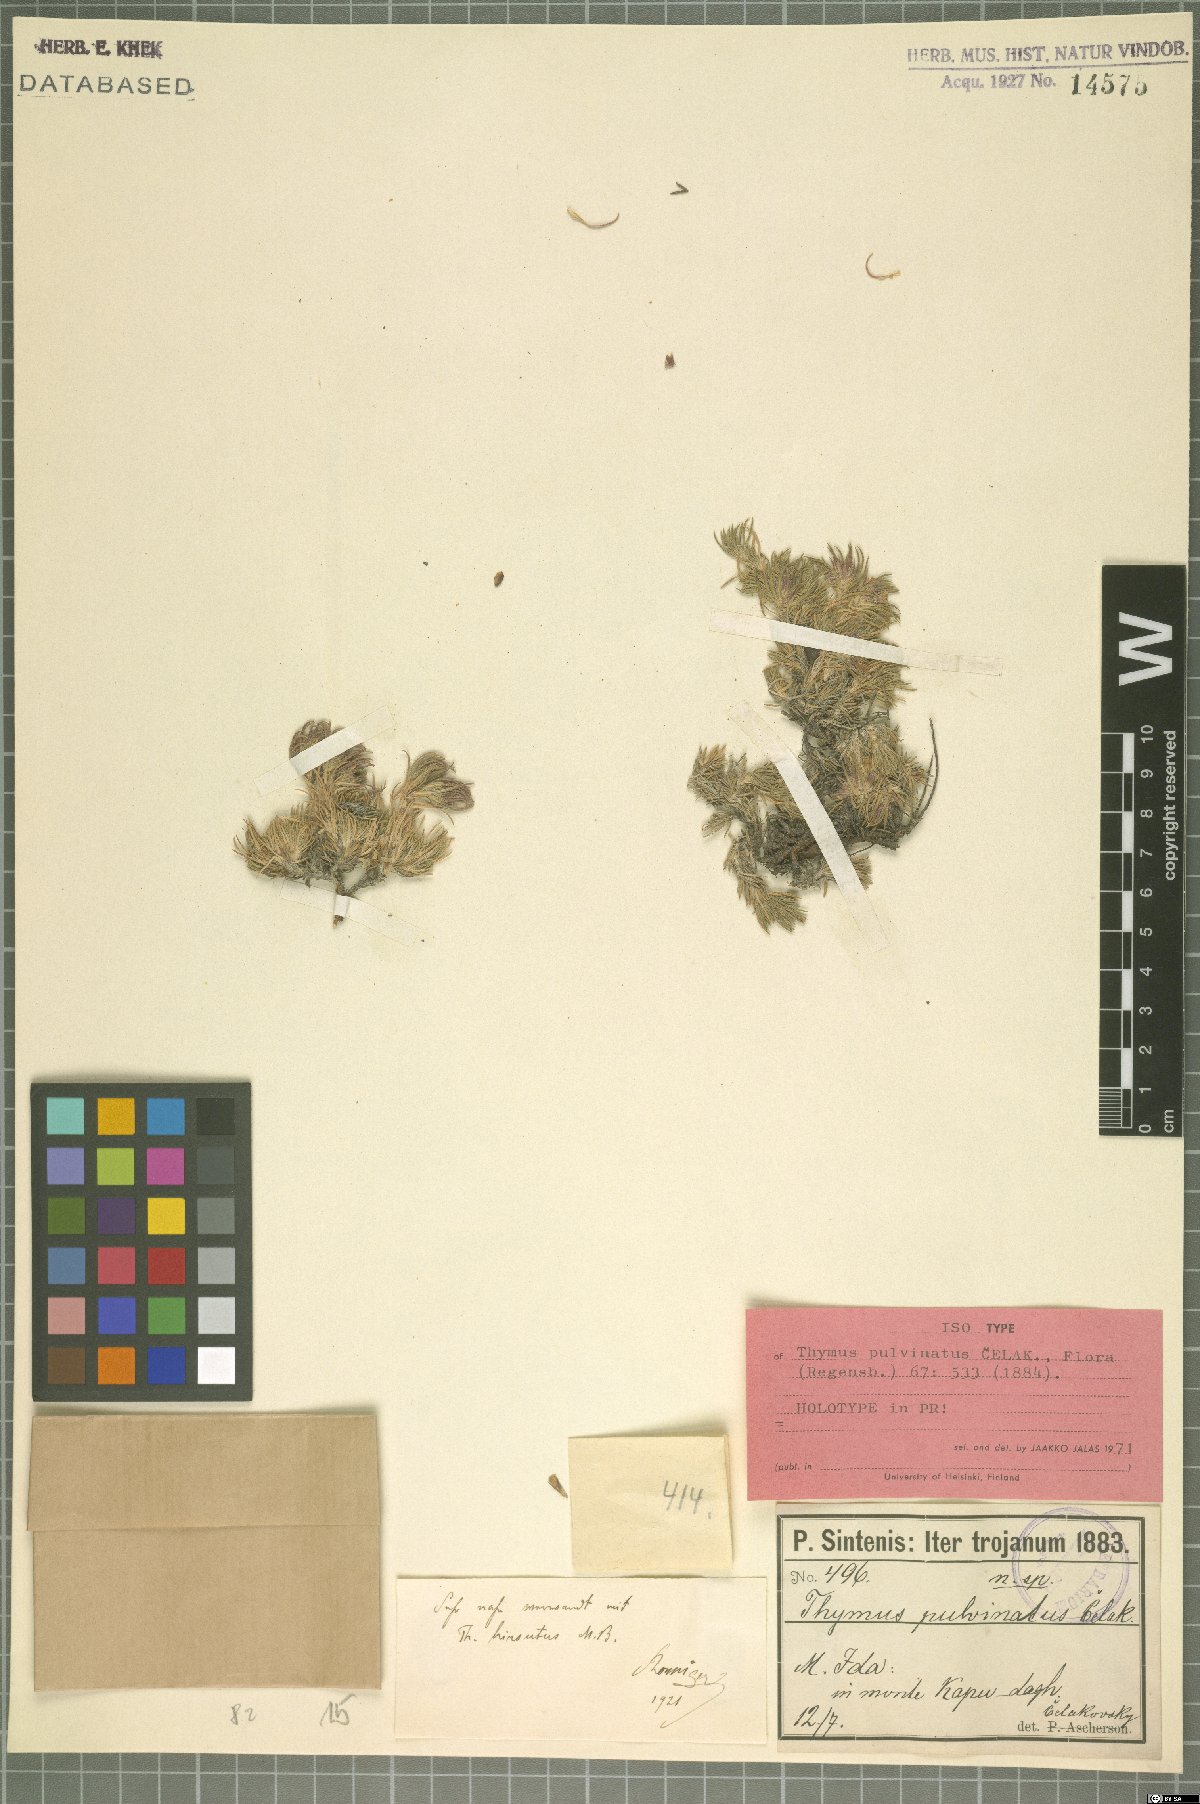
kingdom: Plantae
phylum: Tracheophyta
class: Magnoliopsida
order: Lamiales
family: Lamiaceae
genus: Thymus
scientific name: Thymus pulvinatus
